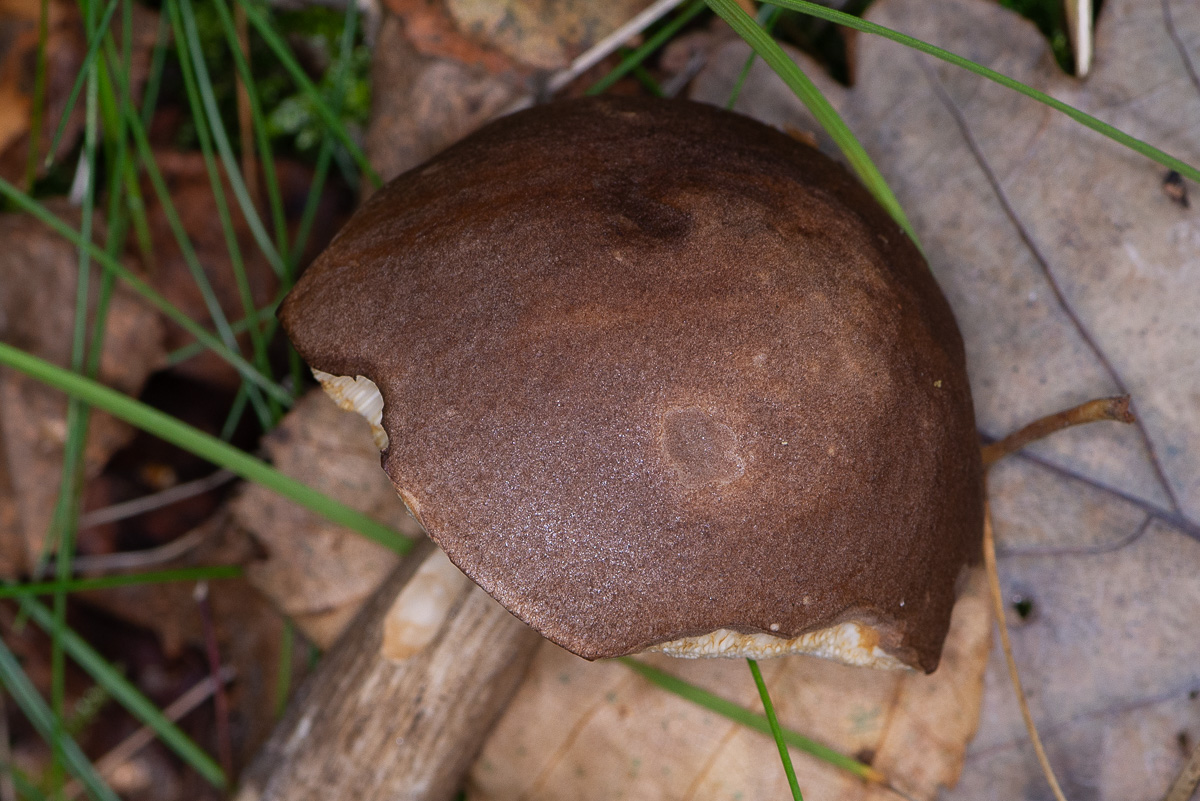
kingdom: Fungi
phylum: Basidiomycota
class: Agaricomycetes
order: Boletales
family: Boletaceae
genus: Leccinum
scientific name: Leccinum scabrum
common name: brun skælrørhat
